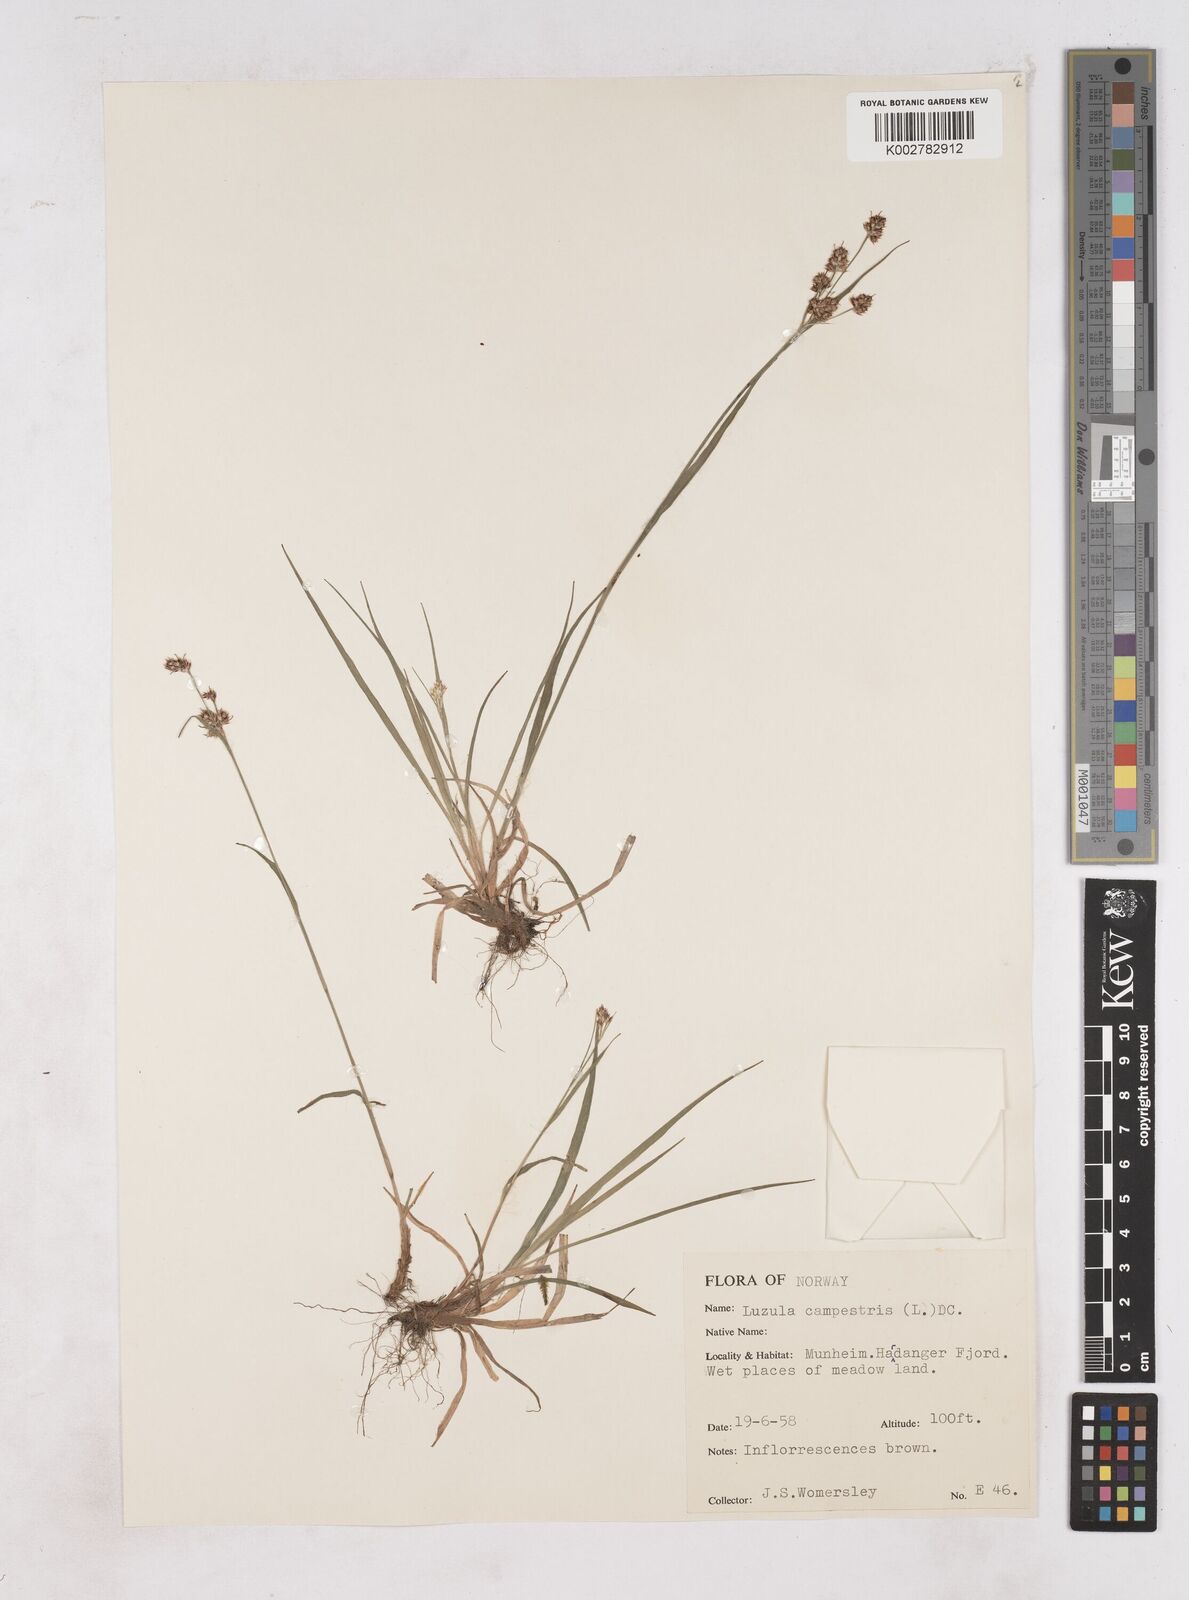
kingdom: Plantae
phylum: Tracheophyta
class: Liliopsida
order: Poales
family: Juncaceae
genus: Luzula
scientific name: Luzula campestris
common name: Field wood-rush
